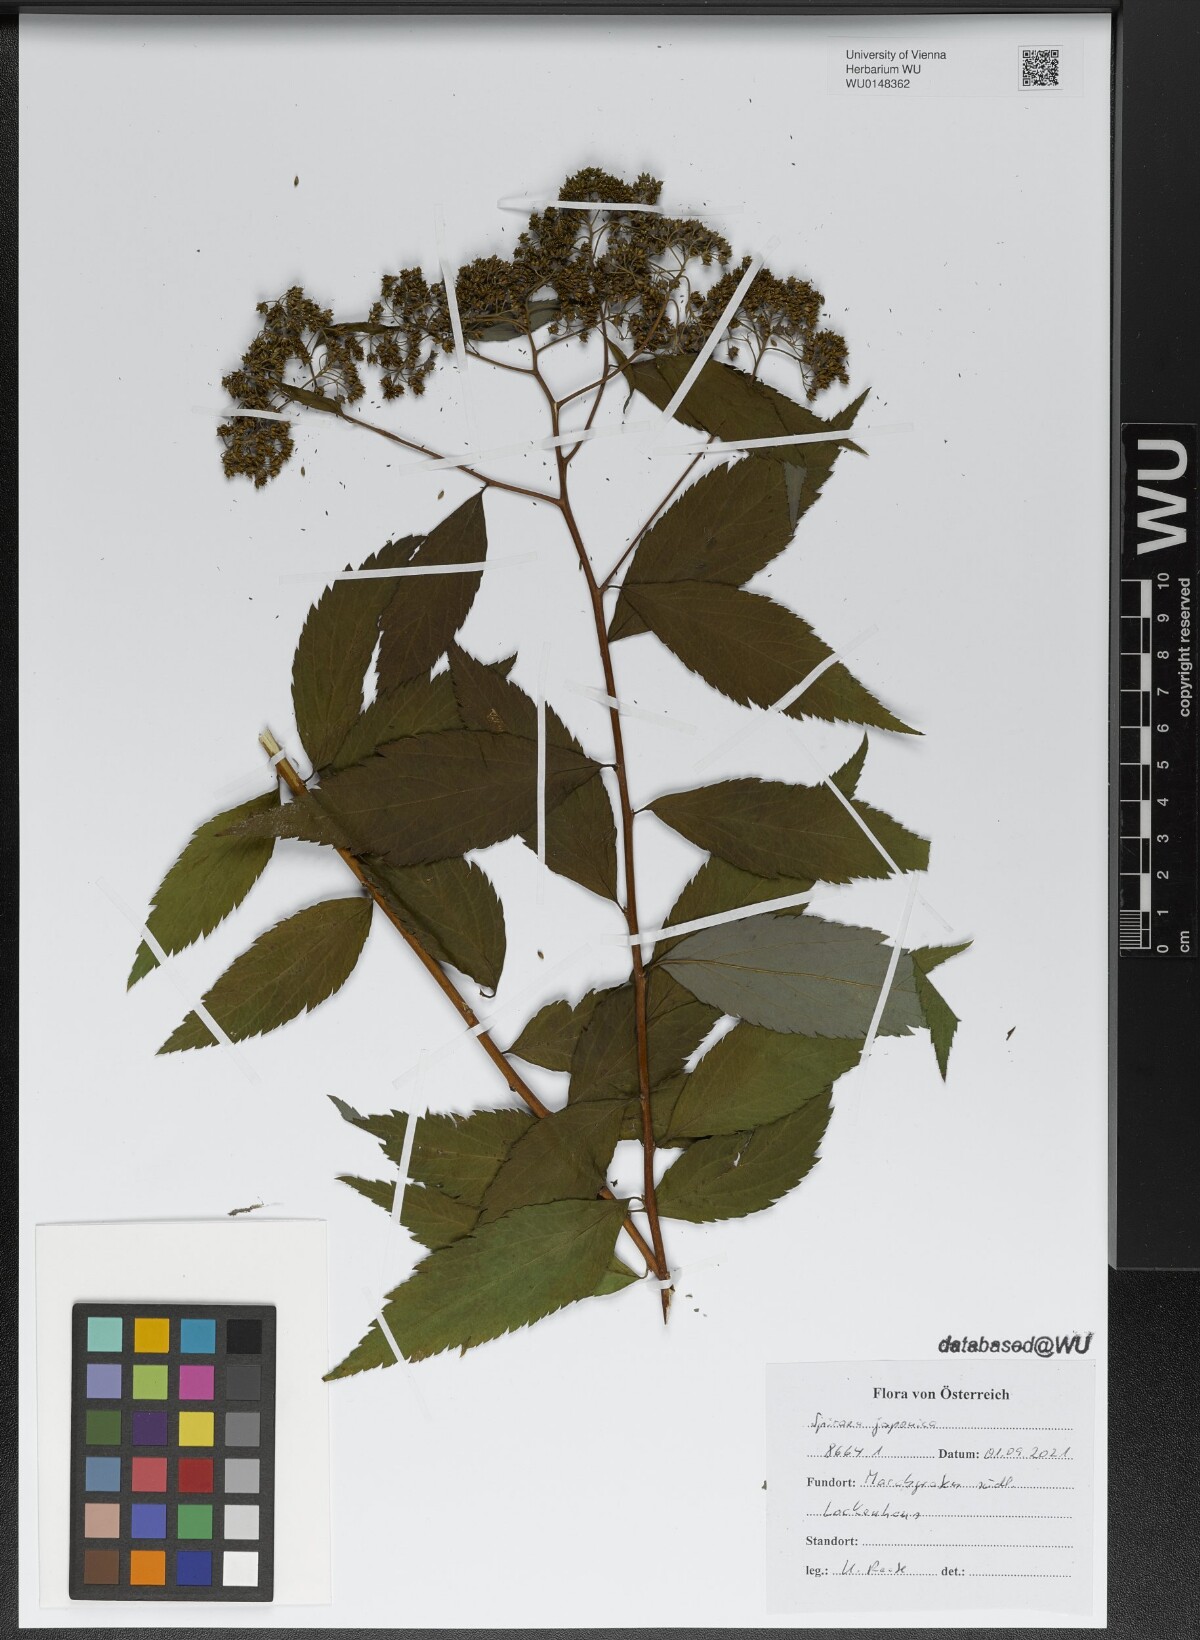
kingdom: Plantae
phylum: Tracheophyta
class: Magnoliopsida
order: Rosales
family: Rosaceae
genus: Spiraea
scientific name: Spiraea japonica
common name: Japanese spiraea
